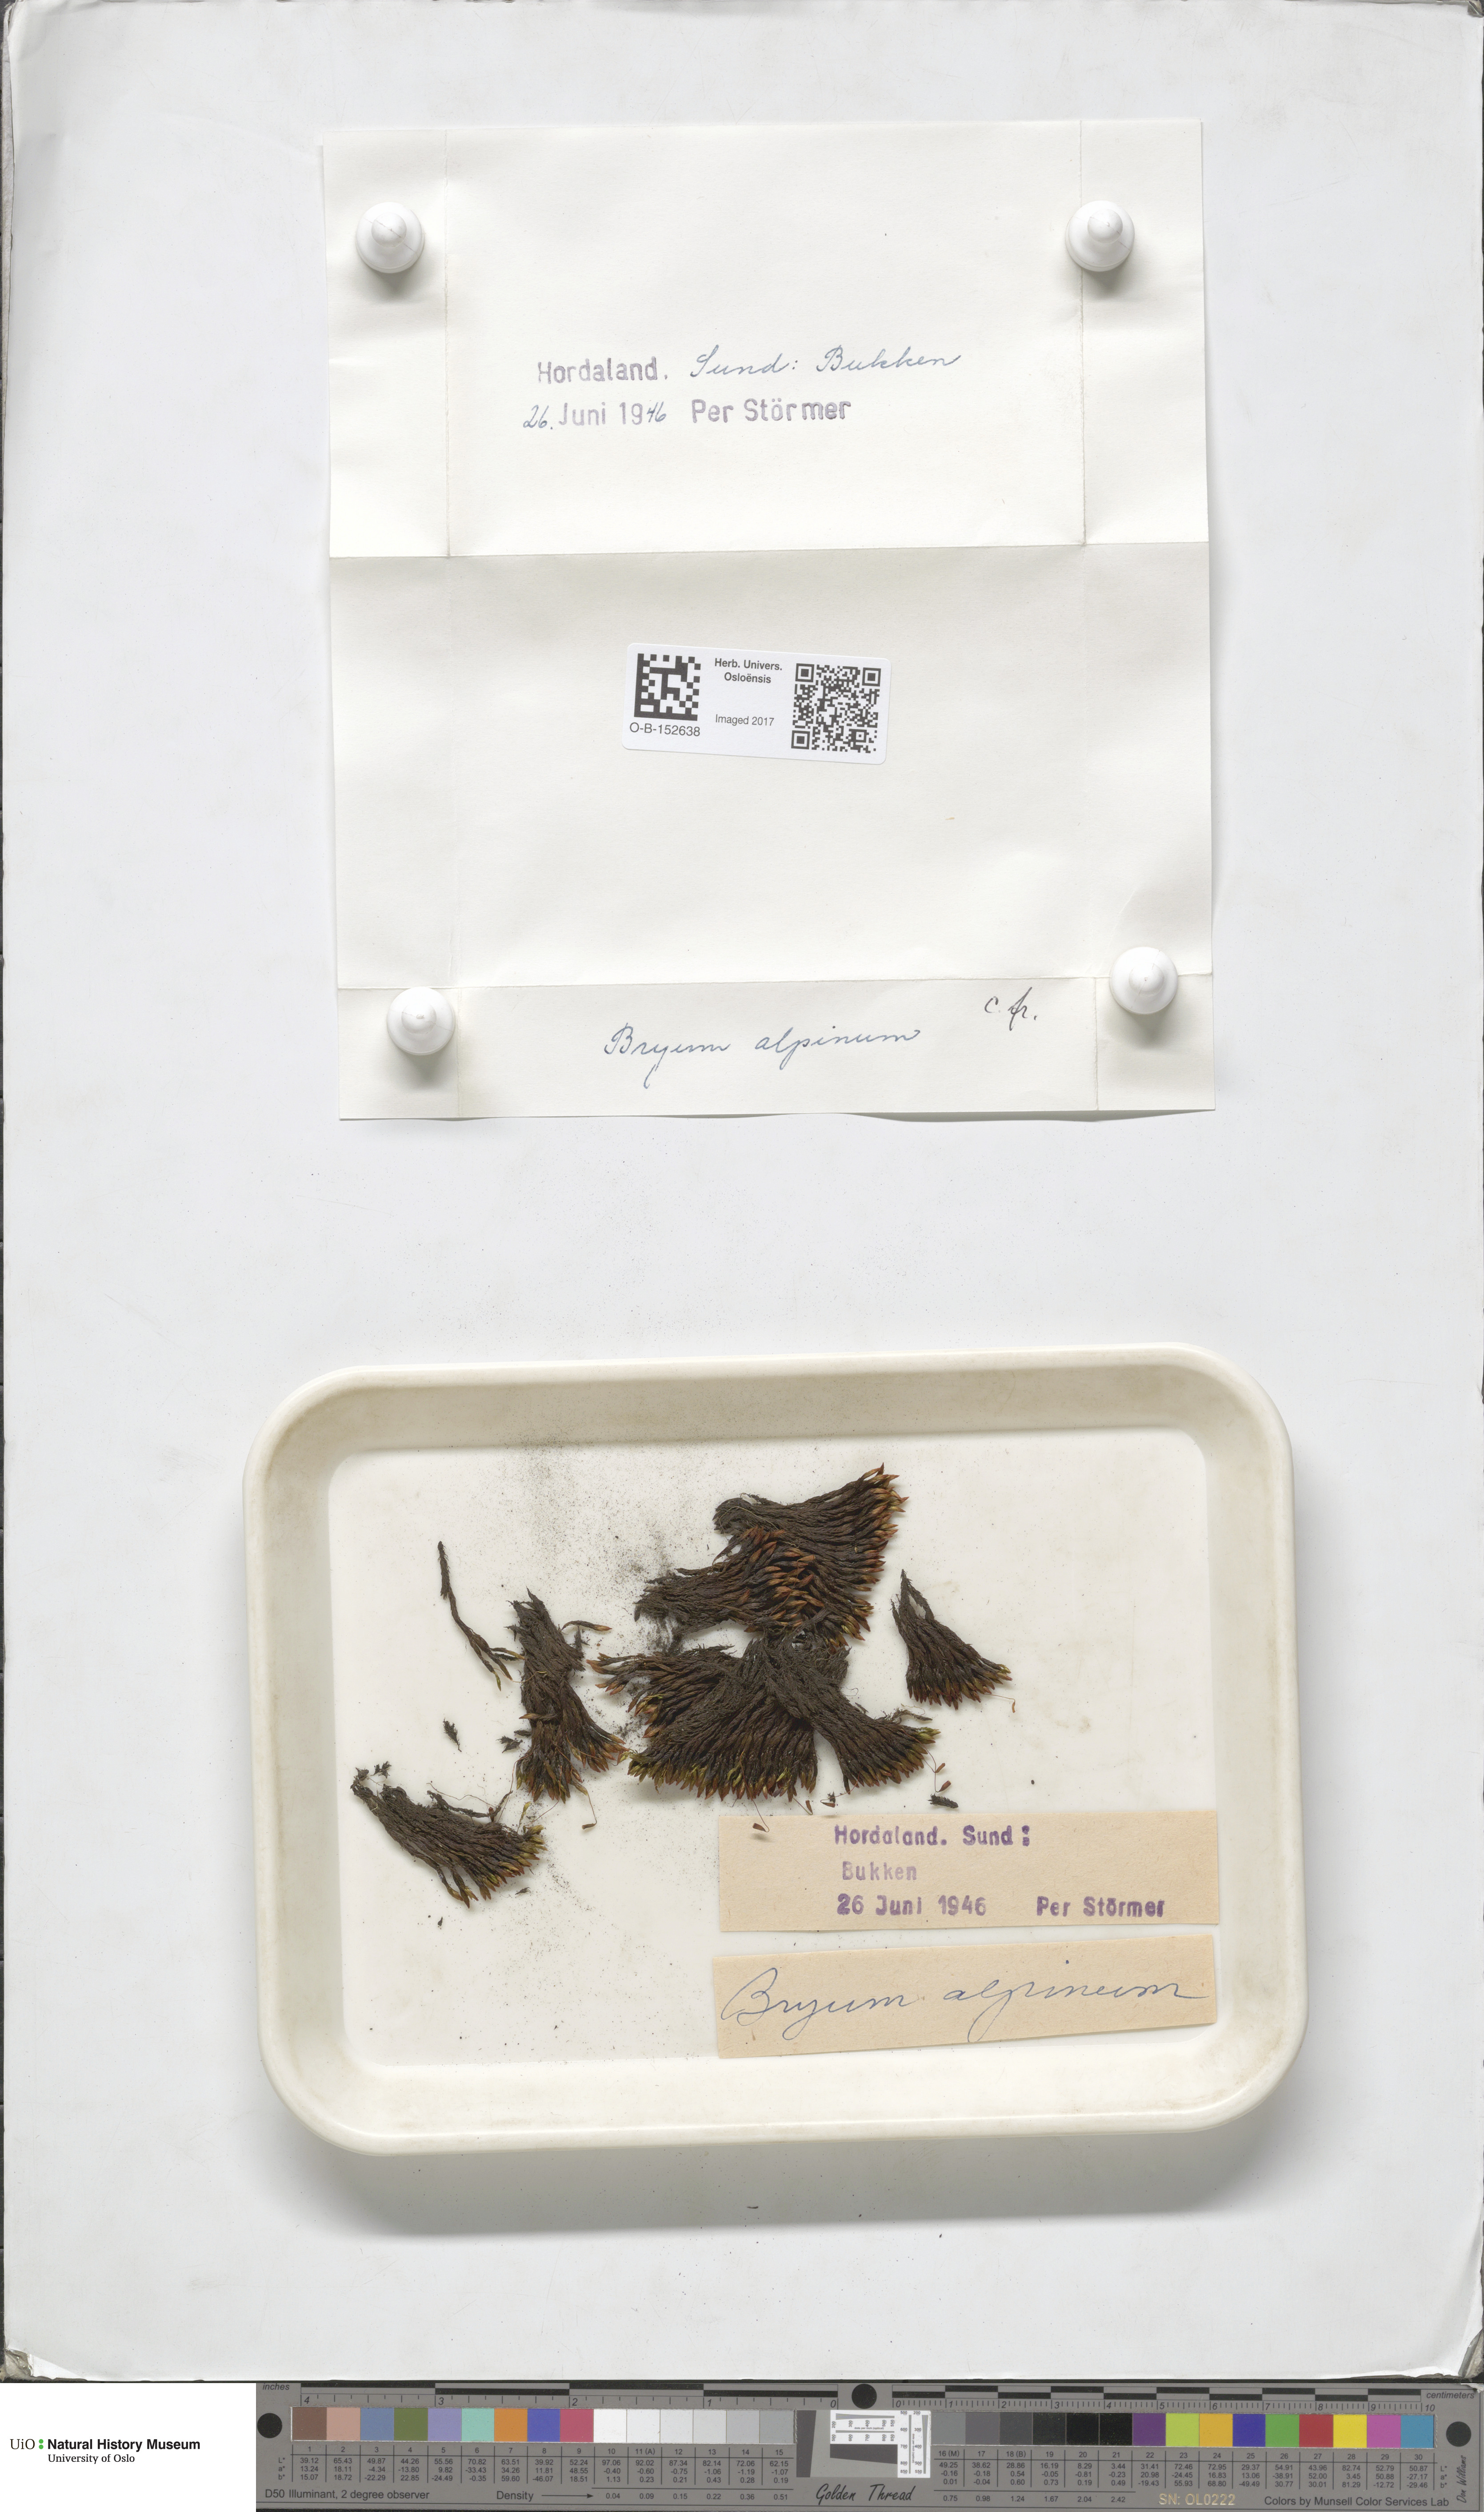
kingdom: Plantae
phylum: Bryophyta
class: Bryopsida
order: Bryales
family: Bryaceae
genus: Imbribryum
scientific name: Imbribryum alpinum
